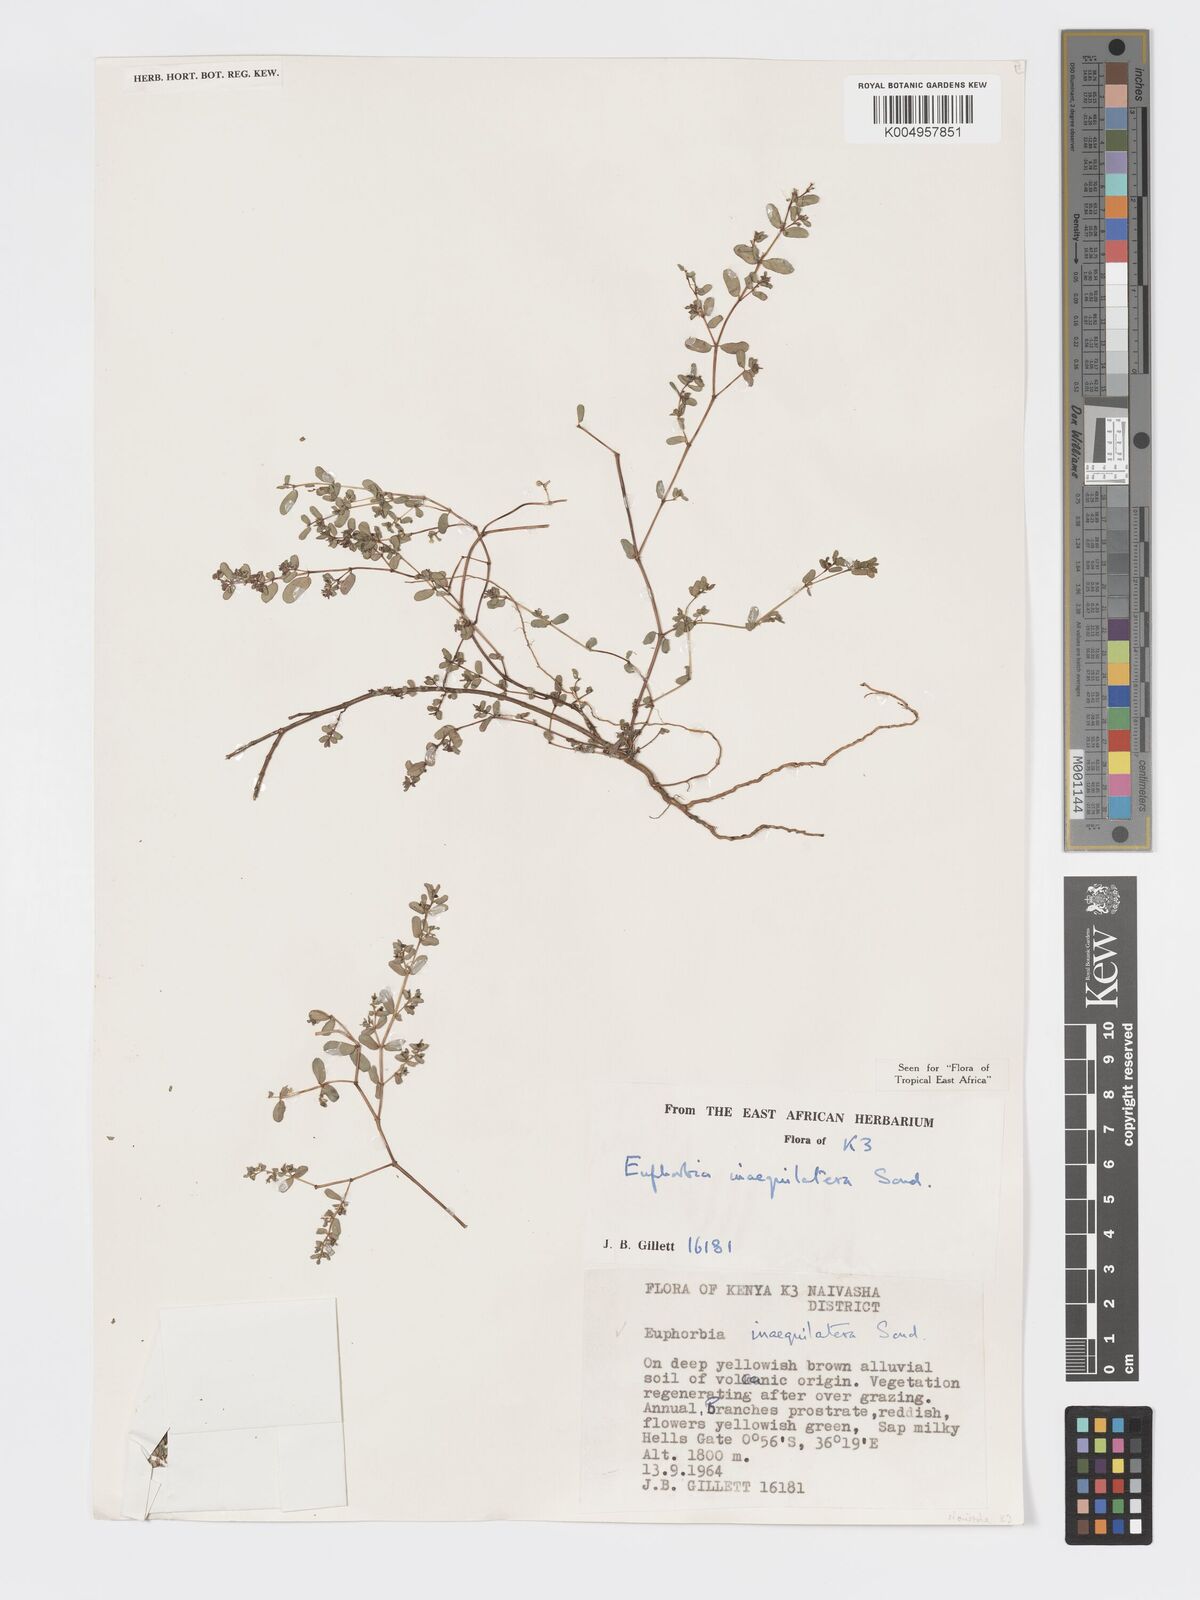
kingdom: Plantae
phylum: Tracheophyta
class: Magnoliopsida
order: Malpighiales
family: Euphorbiaceae
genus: Euphorbia
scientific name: Euphorbia inaequilatera
